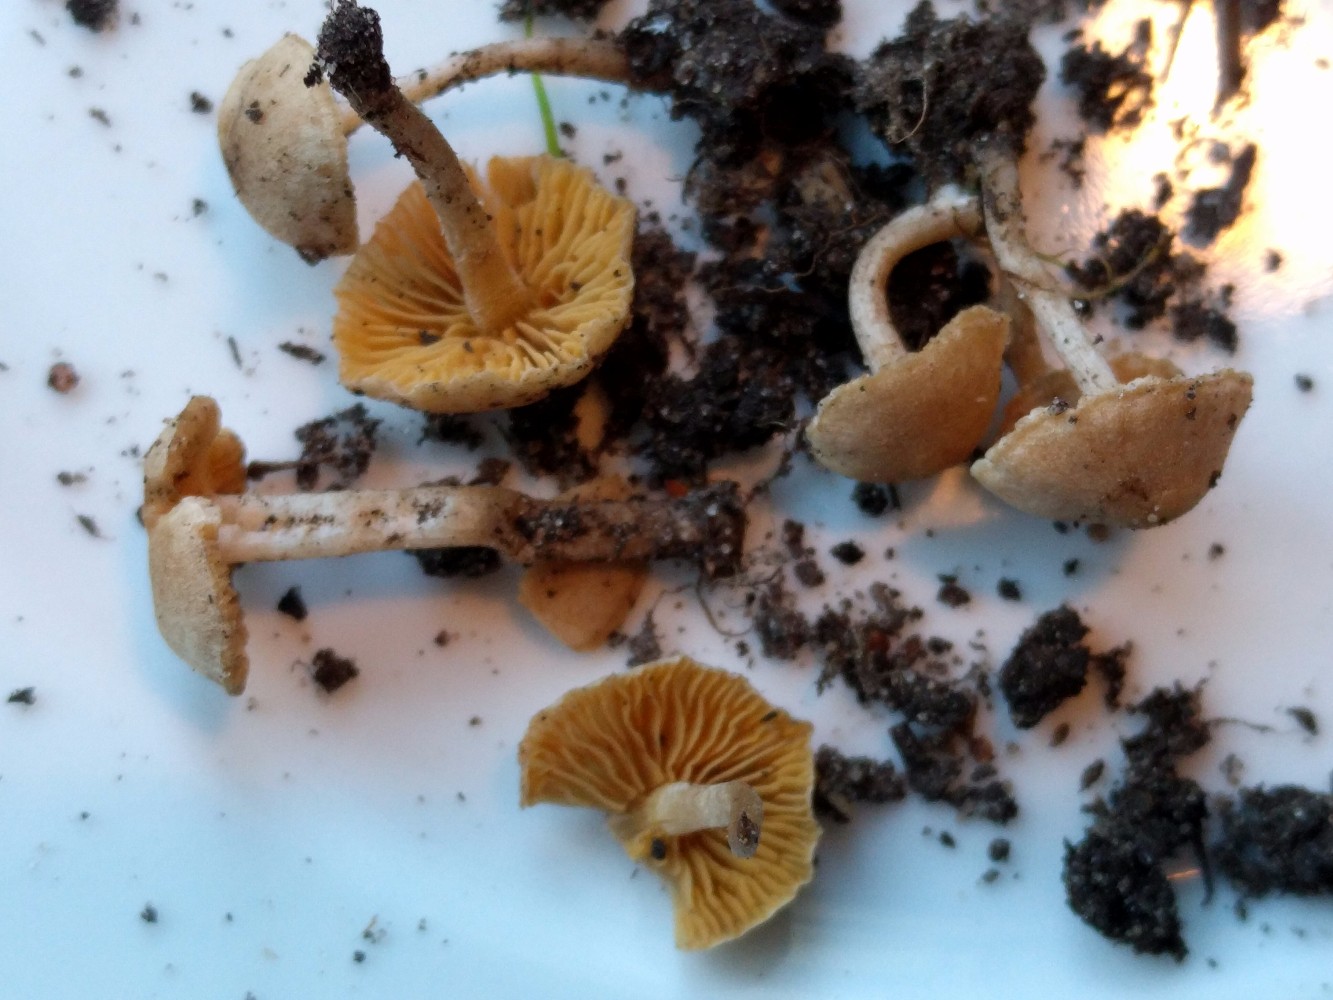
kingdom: Fungi
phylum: Basidiomycota
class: Agaricomycetes
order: Agaricales
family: Tubariaceae
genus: Tubaria
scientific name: Tubaria dispersa
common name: tjørne-fnughat
